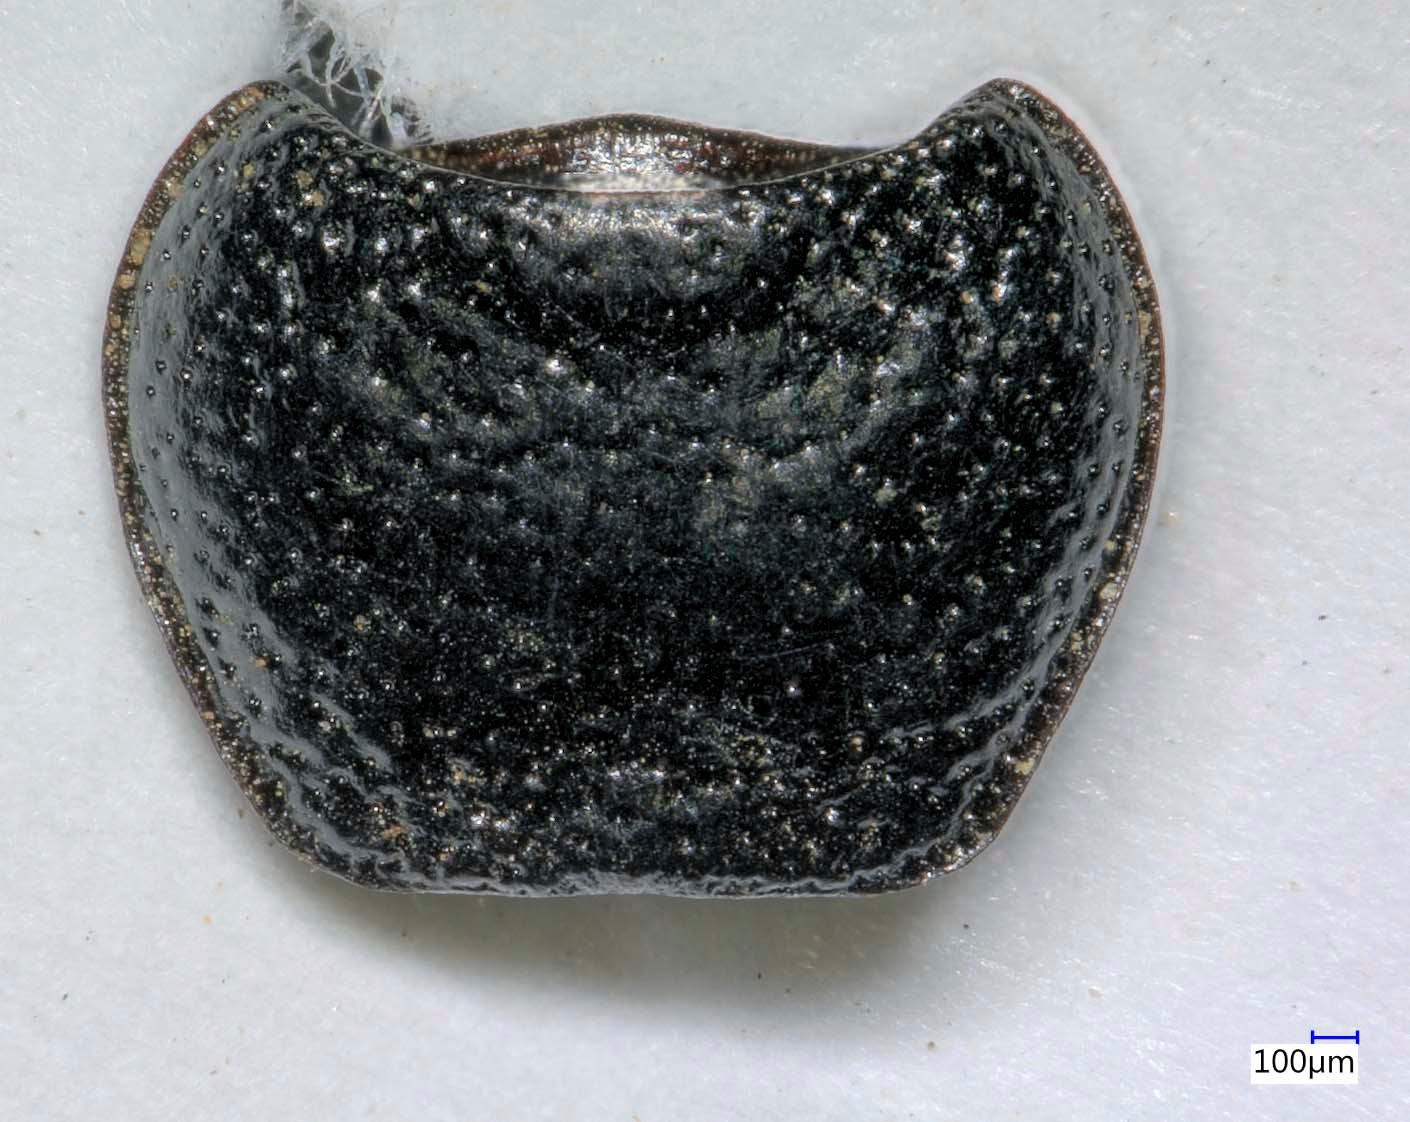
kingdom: Animalia
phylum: Arthropoda
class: Insecta
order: Coleoptera
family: Carabidae
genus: Dicheirus
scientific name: Dicheirus dilatatus
